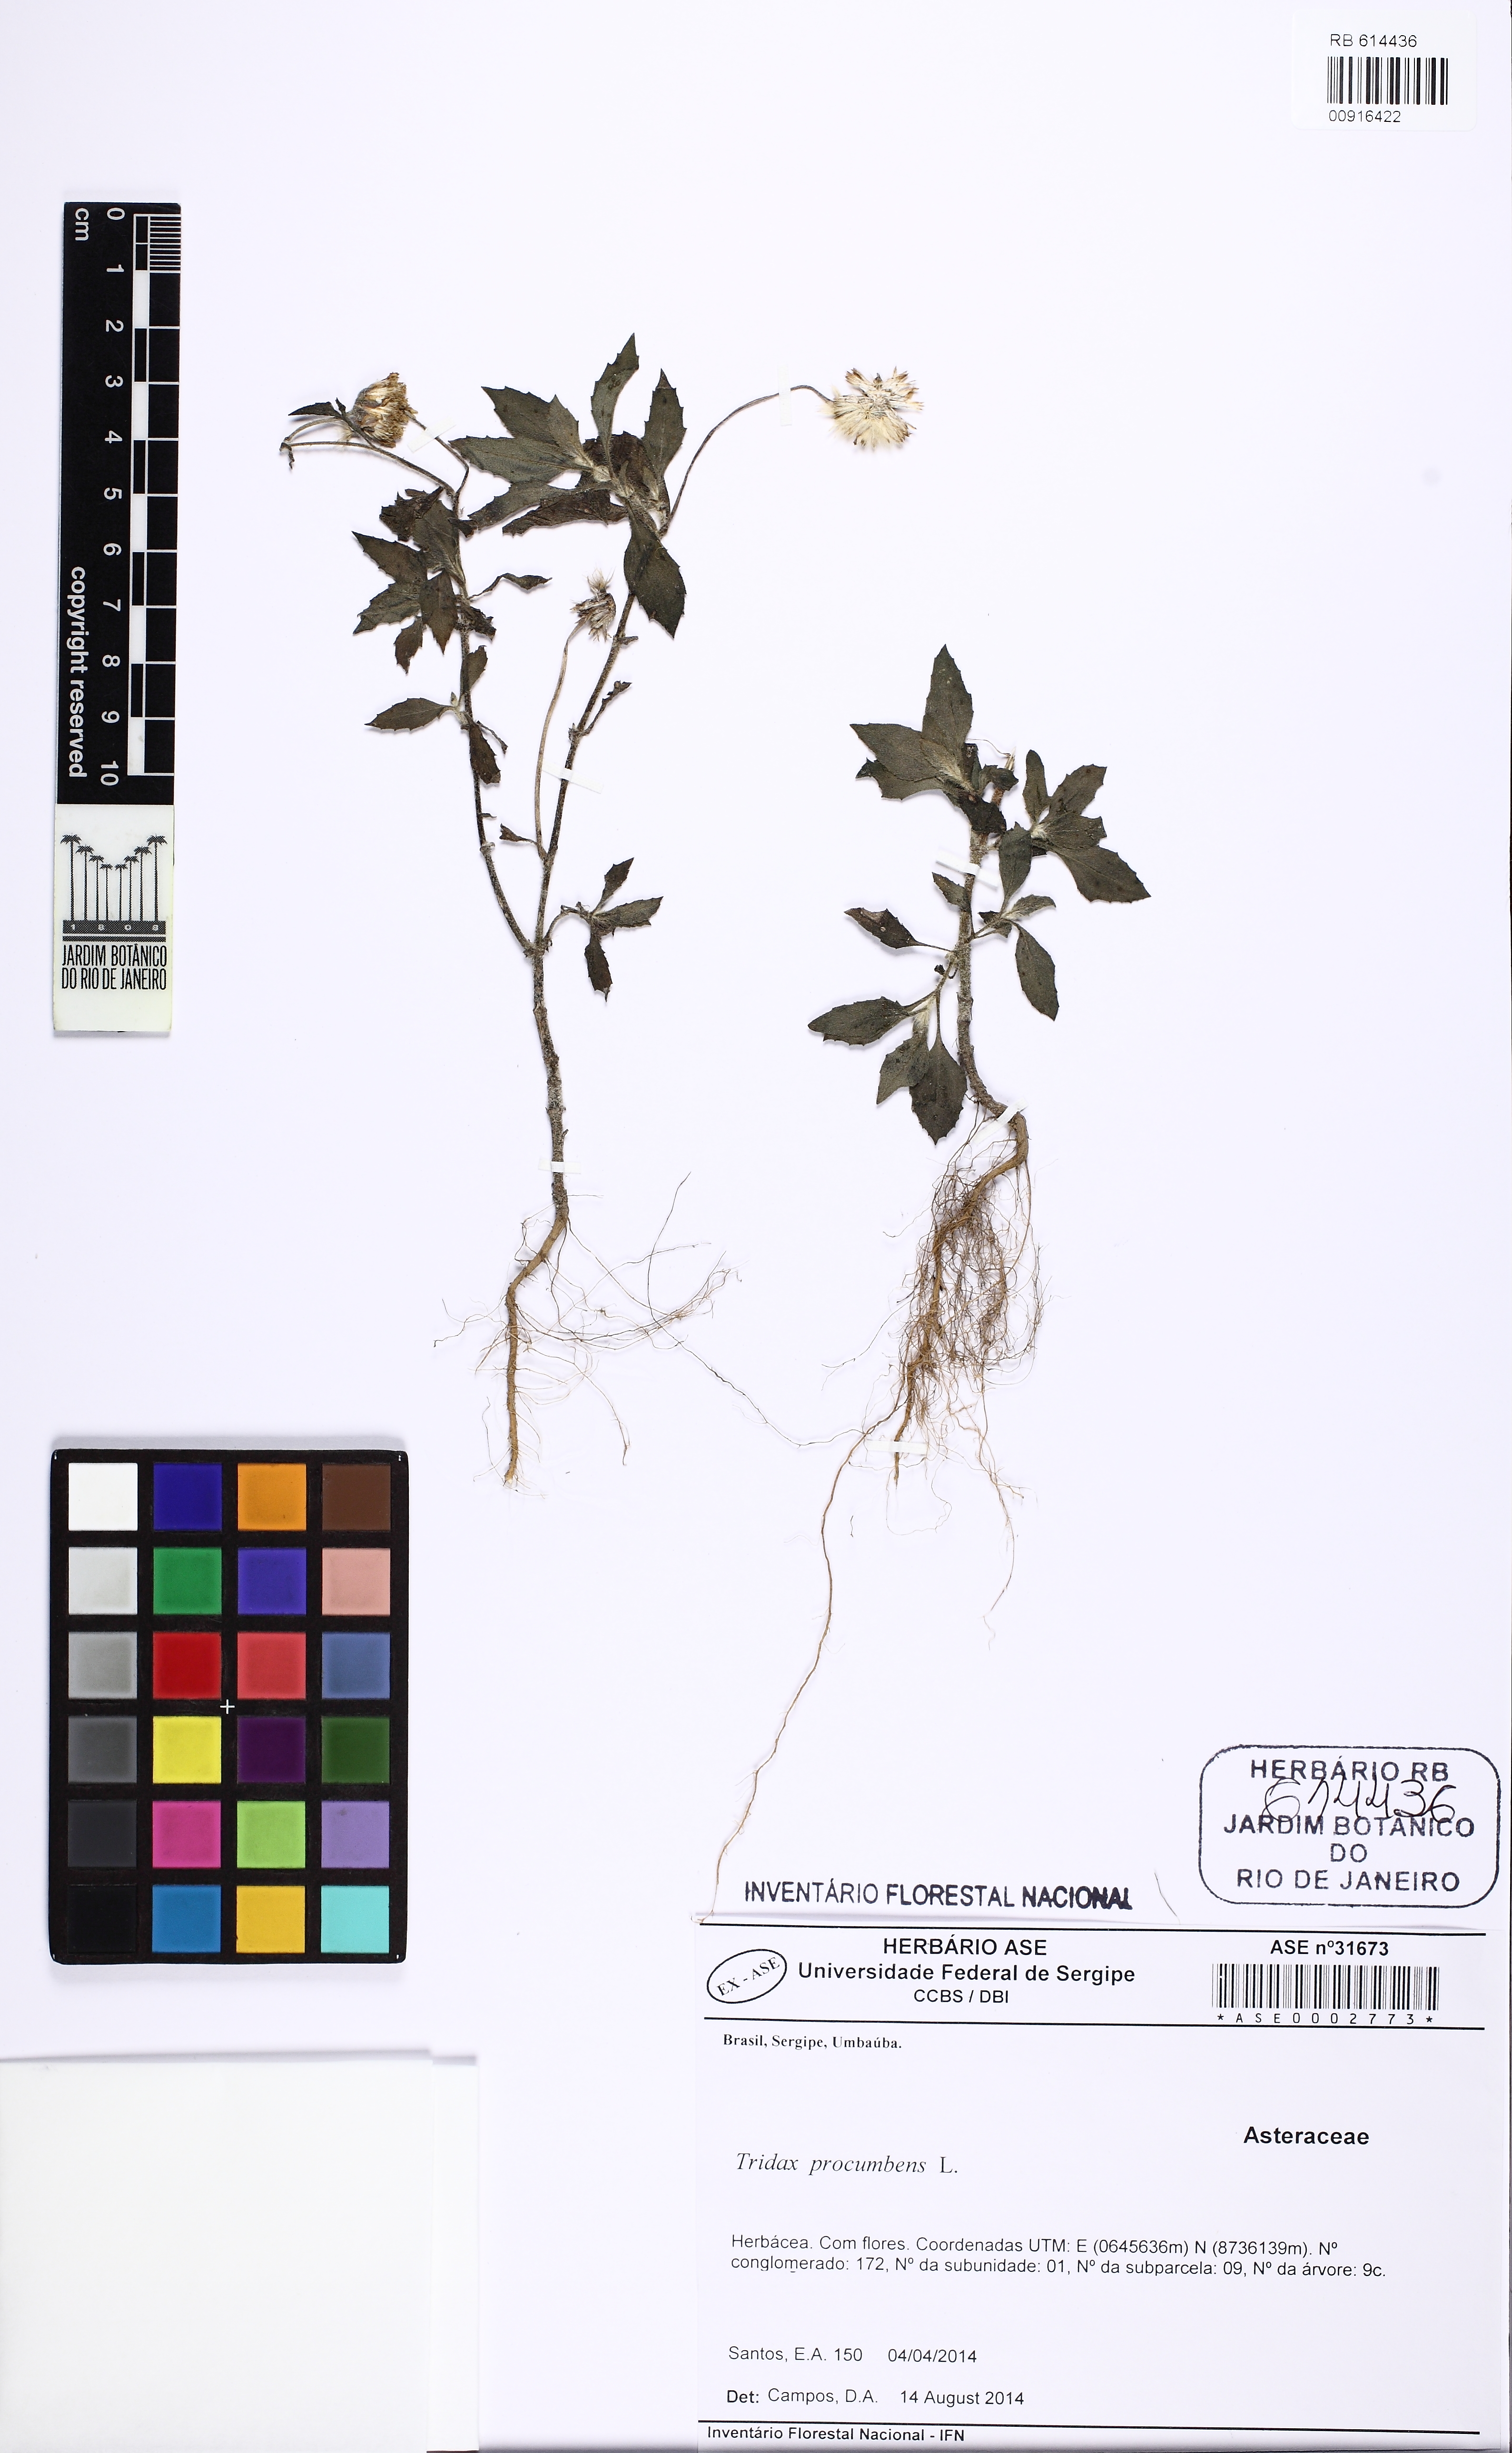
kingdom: Plantae
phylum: Tracheophyta
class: Magnoliopsida
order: Asterales
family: Asteraceae
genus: Tridax
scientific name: Tridax procumbens
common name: Coatbuttons
